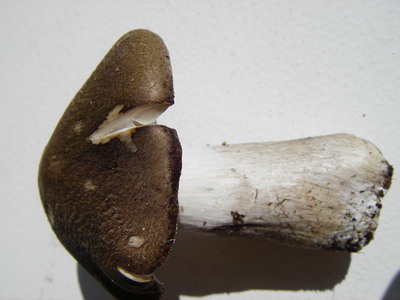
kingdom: Fungi
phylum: Basidiomycota
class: Agaricomycetes
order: Agaricales
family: Tricholomataceae
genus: Tricholoma
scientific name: Tricholoma scalpturatum
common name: gulplettet ridderhat
